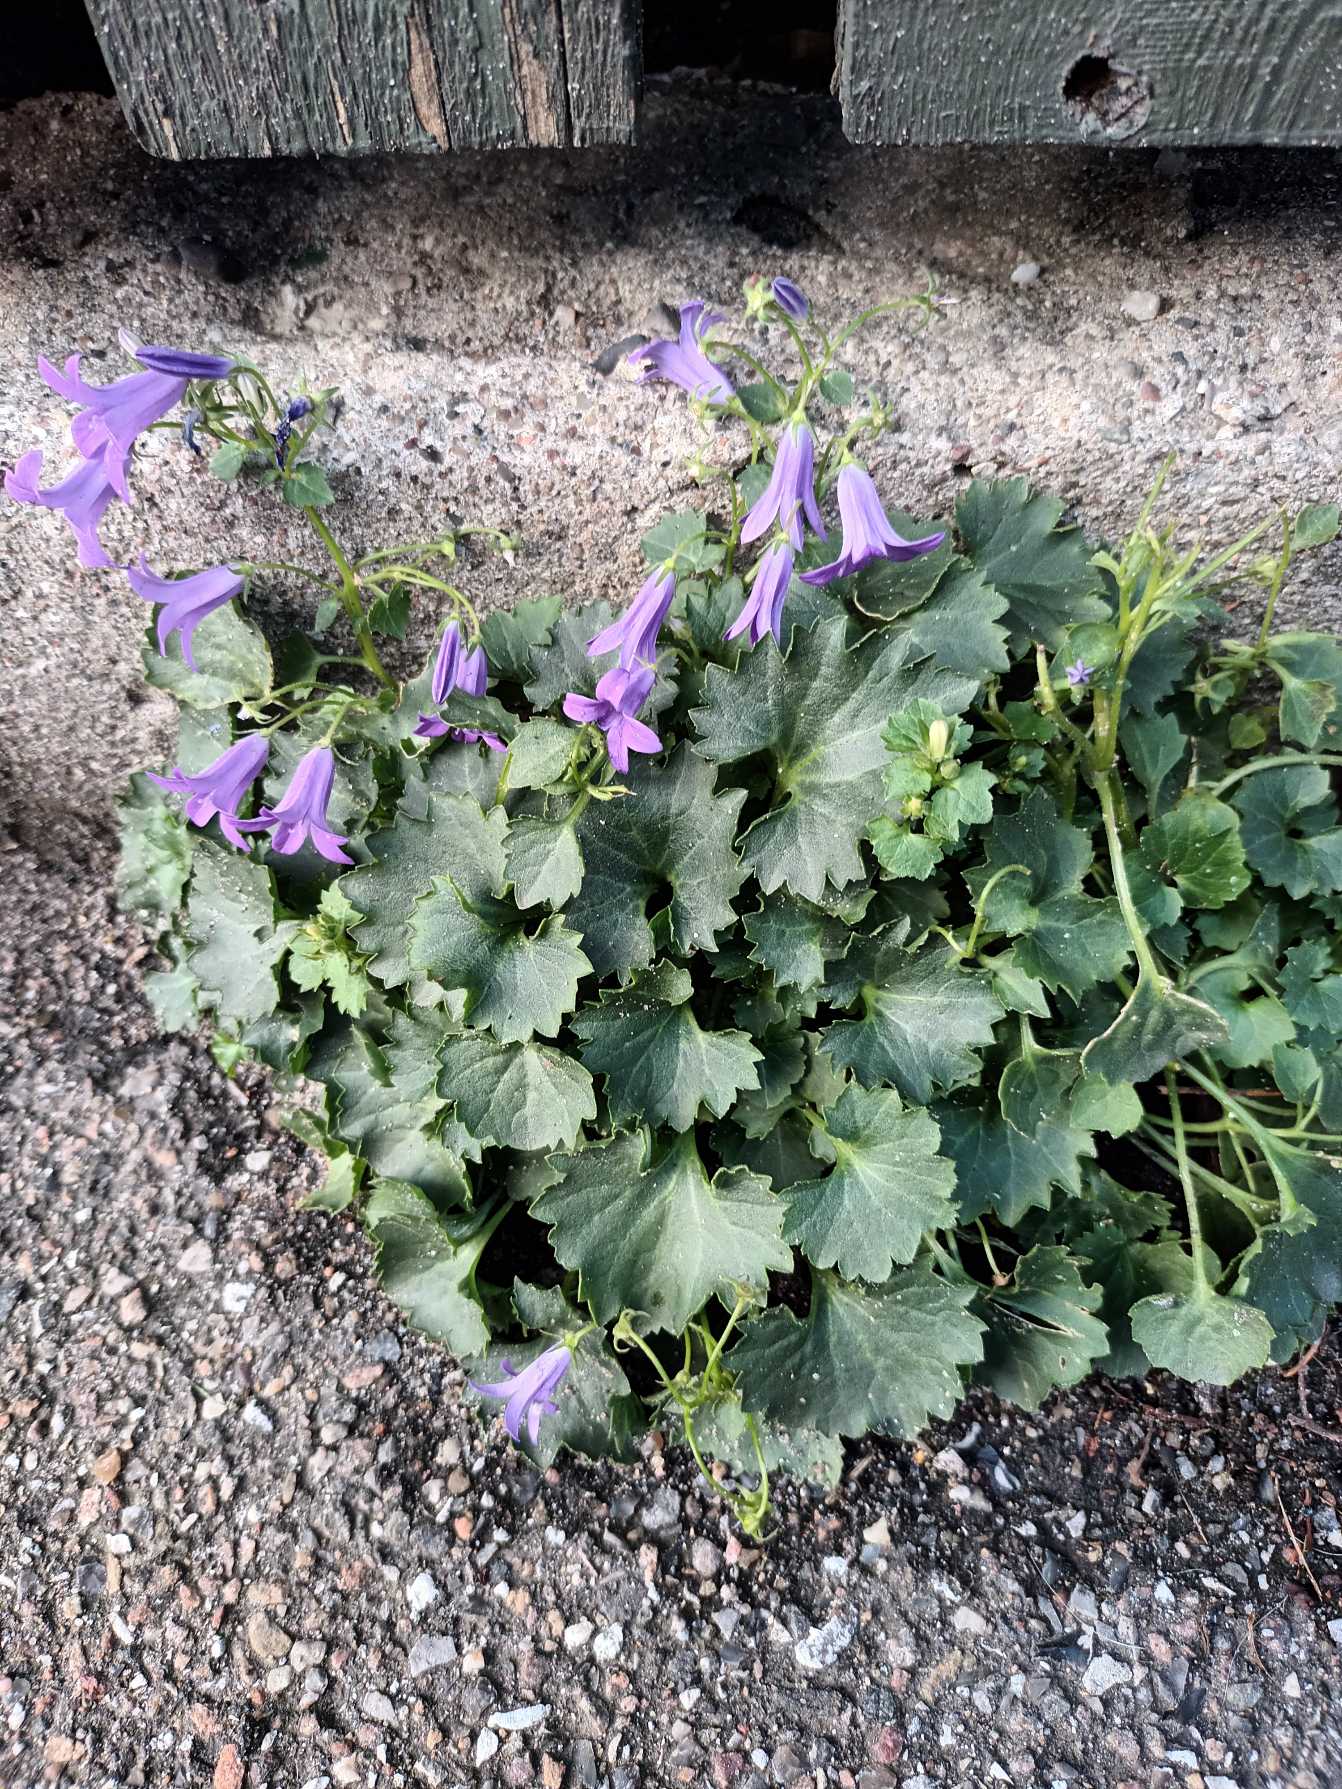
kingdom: Plantae
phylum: Tracheophyta
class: Magnoliopsida
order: Asterales
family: Campanulaceae
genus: Campanula
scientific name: Campanula portenschlagiana
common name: Krybe-klokke
